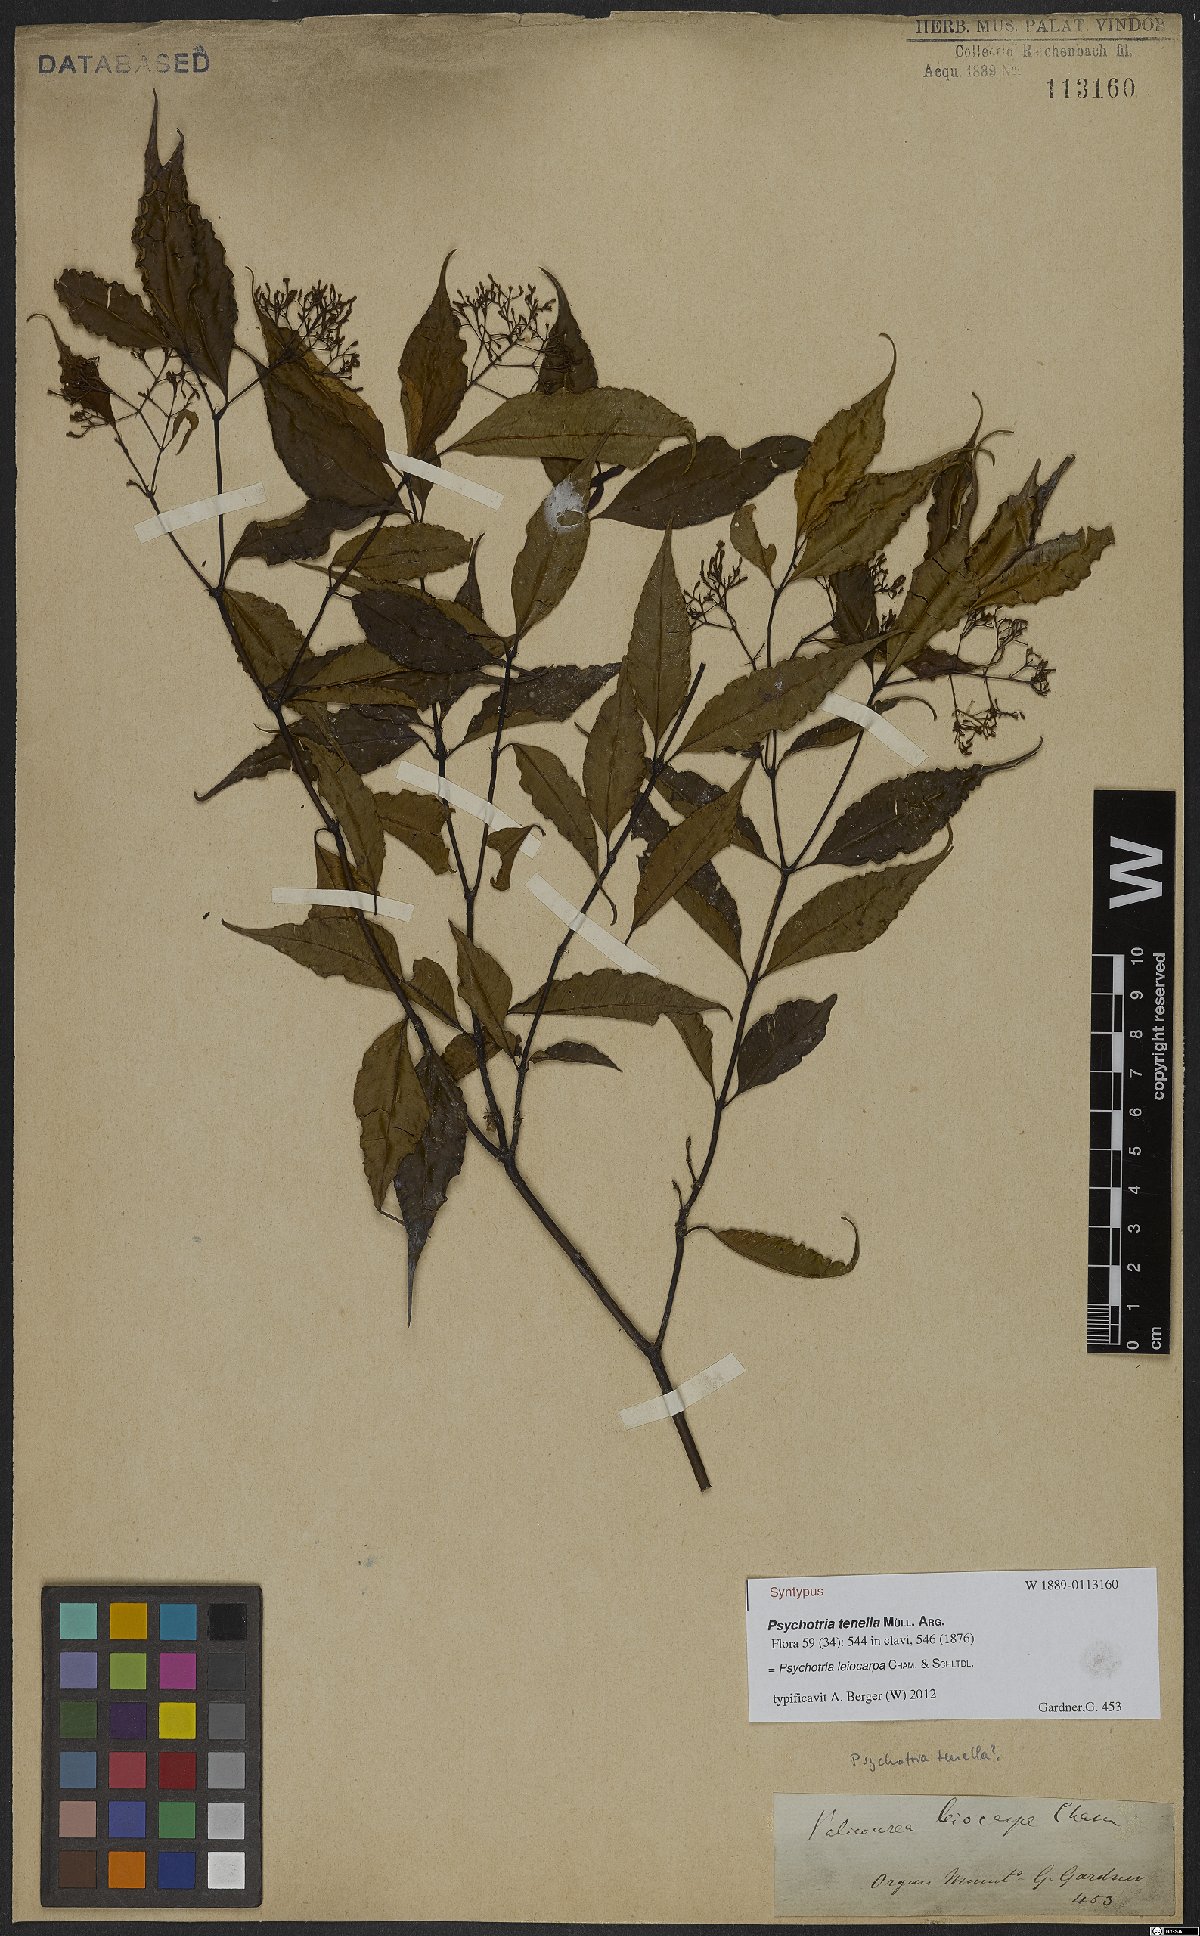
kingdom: Plantae
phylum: Tracheophyta
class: Magnoliopsida
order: Gentianales
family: Rubiaceae
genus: Psychotria
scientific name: Psychotria leiocarpa
